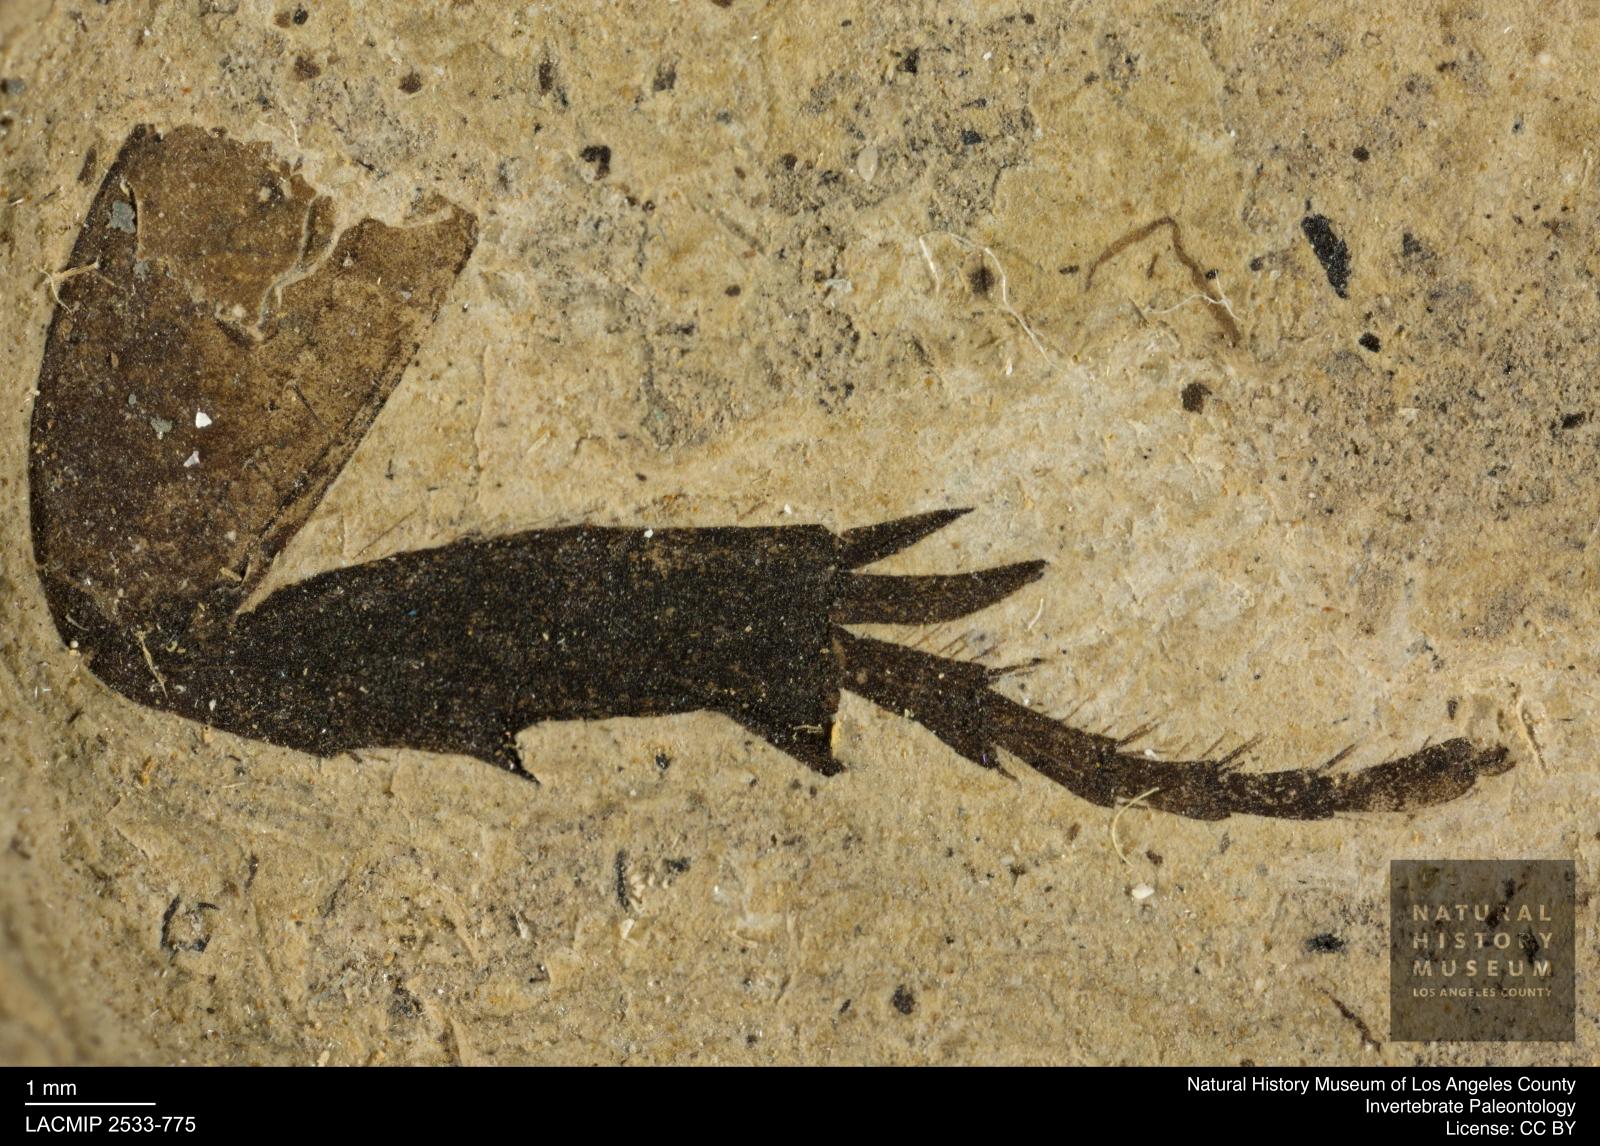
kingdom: Animalia
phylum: Arthropoda
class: Insecta
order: Coleoptera
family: Geotrupidae
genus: Geotrupes
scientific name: Geotrupes
